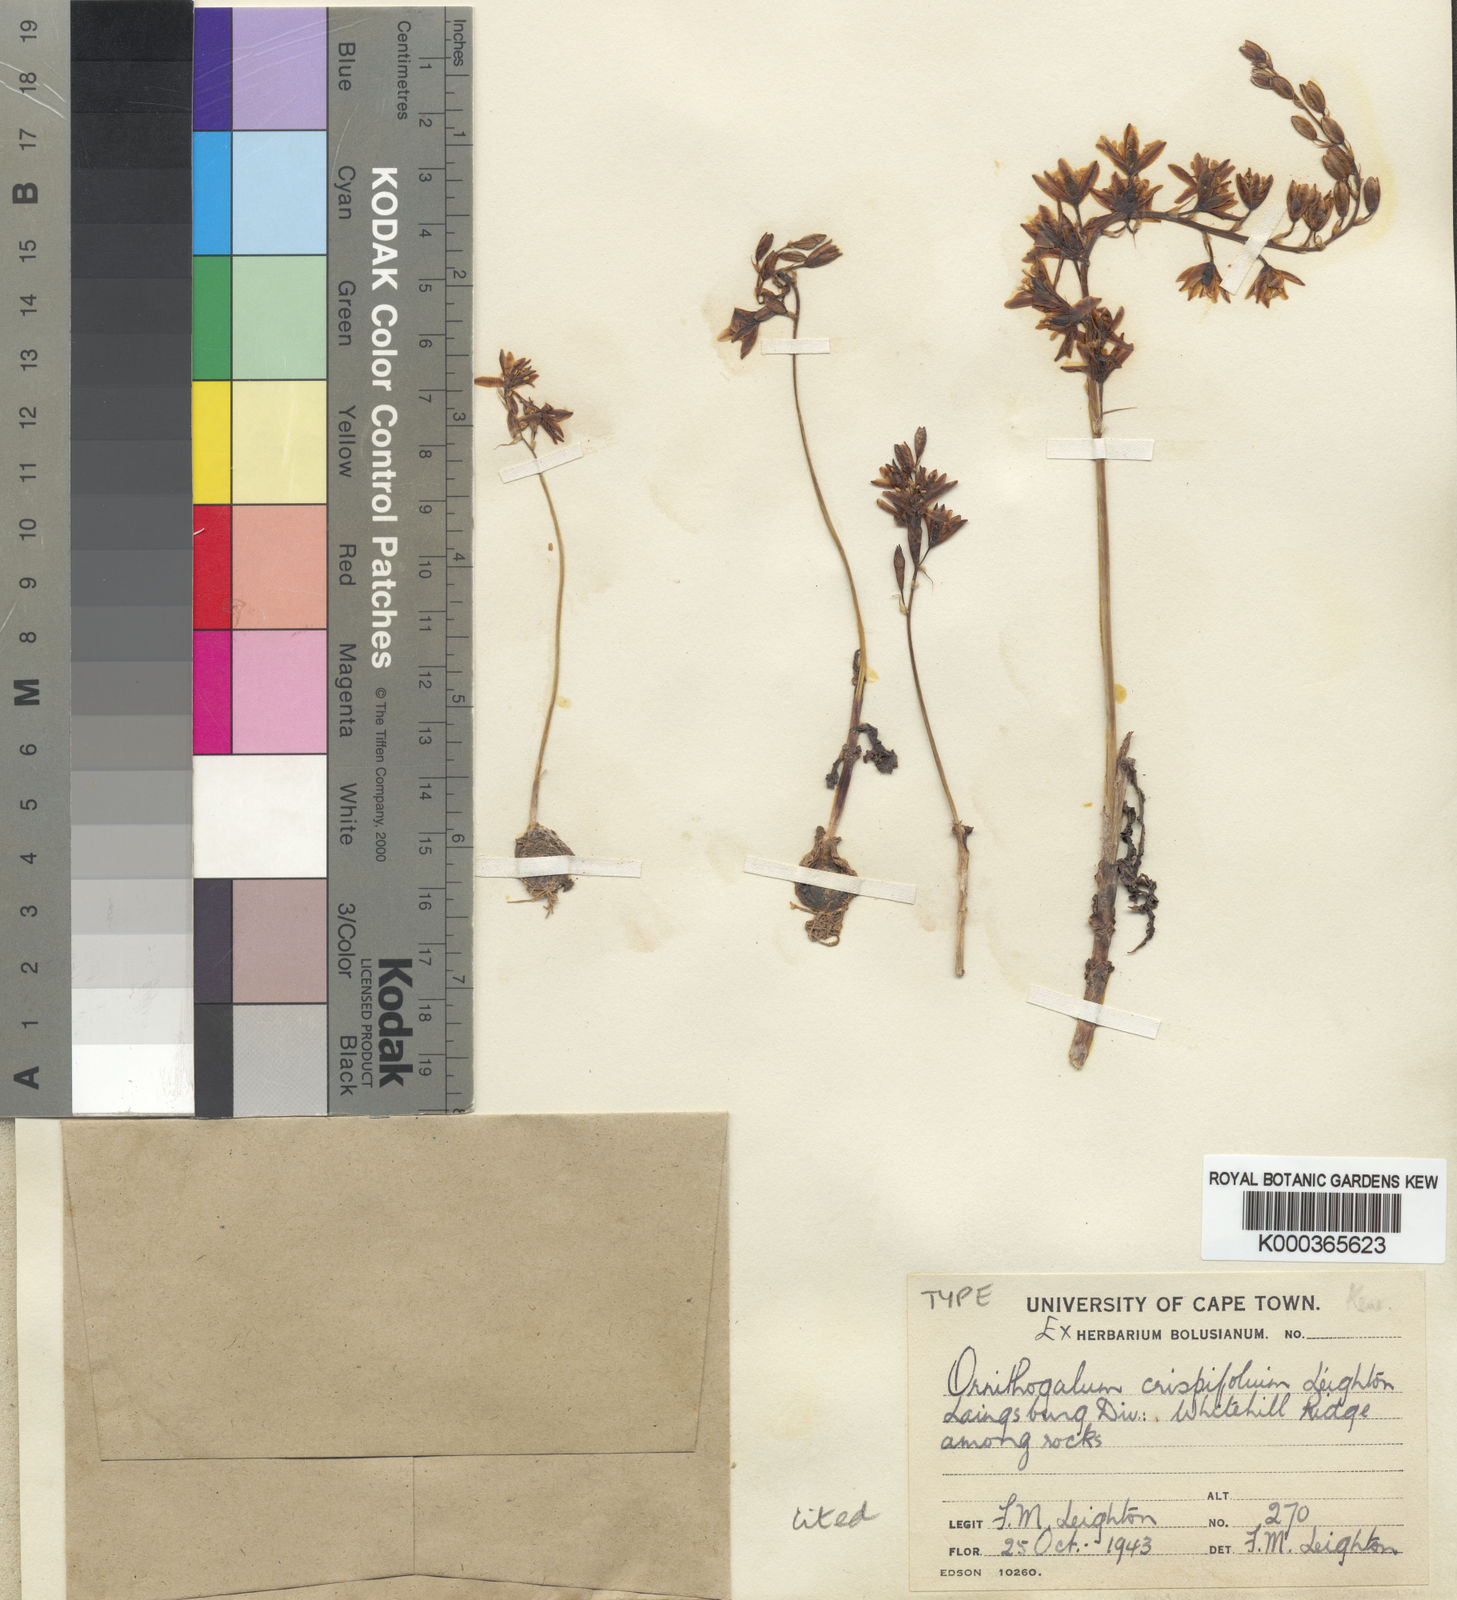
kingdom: Plantae
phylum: Tracheophyta
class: Liliopsida
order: Asparagales
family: Asparagaceae
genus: Ornithogalum
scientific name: Ornithogalum graminifolium
